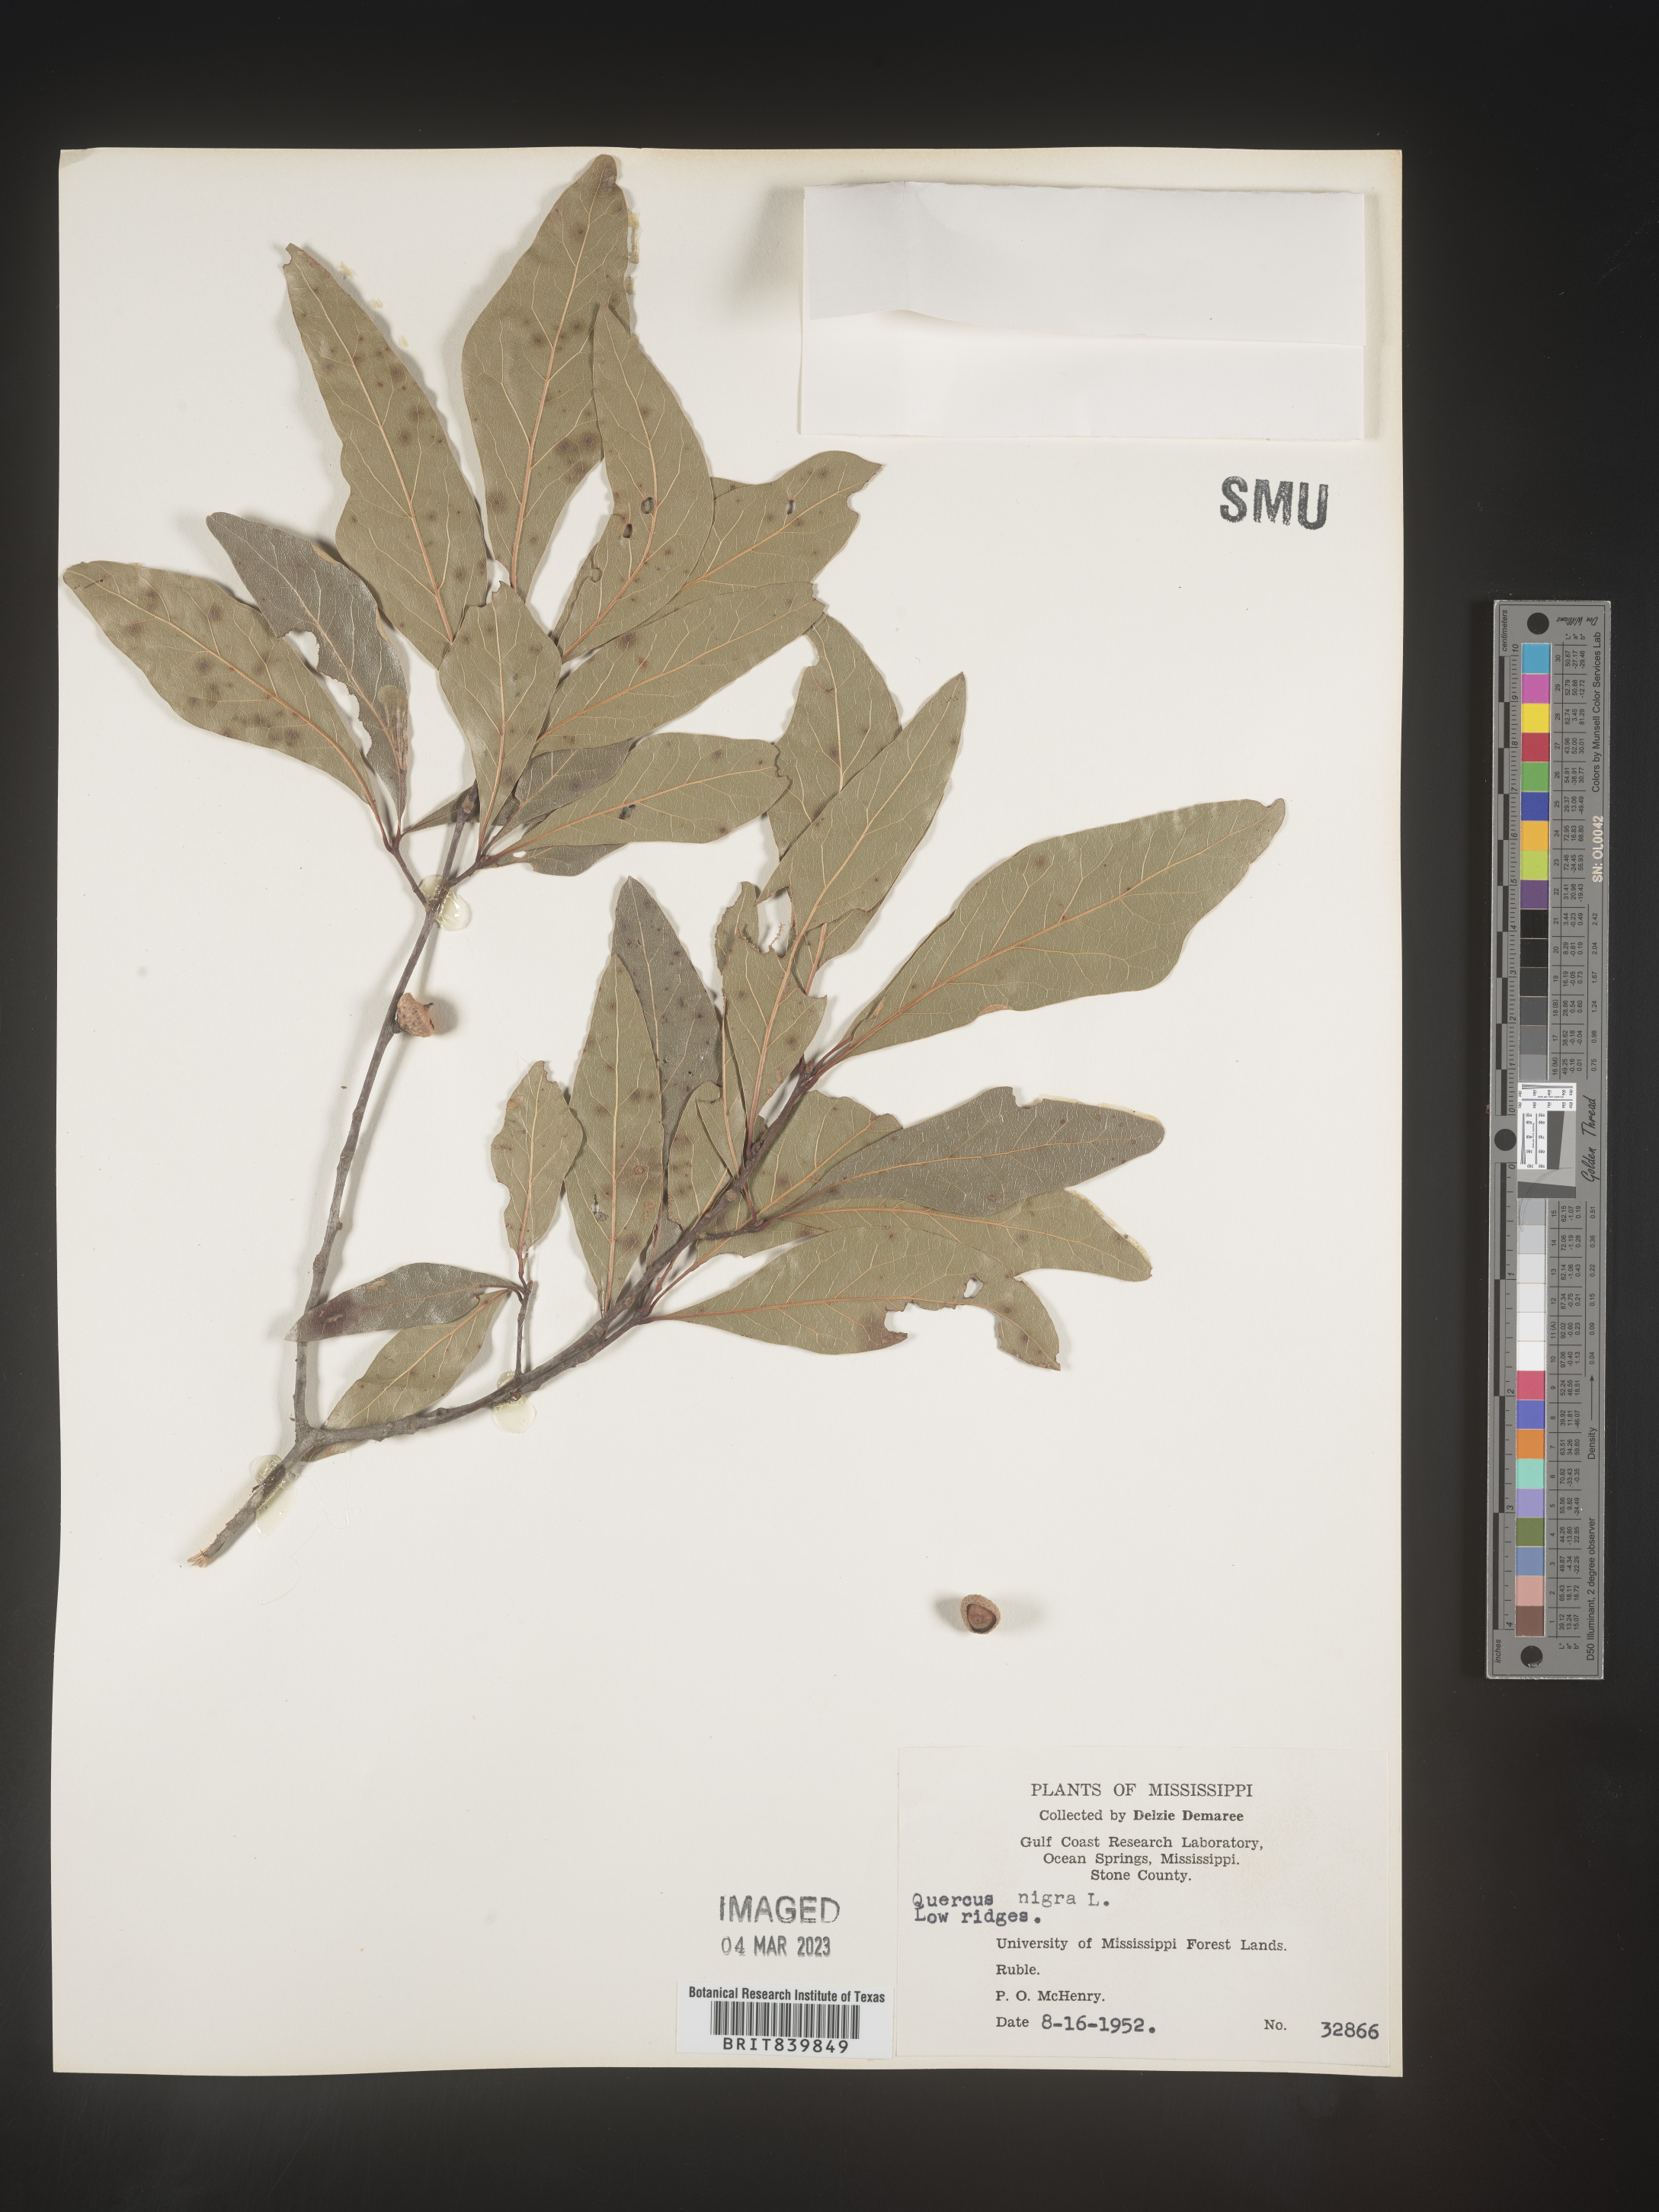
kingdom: Plantae
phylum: Tracheophyta
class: Magnoliopsida
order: Fagales
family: Fagaceae
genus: Quercus
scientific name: Quercus nigra
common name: Water oak
